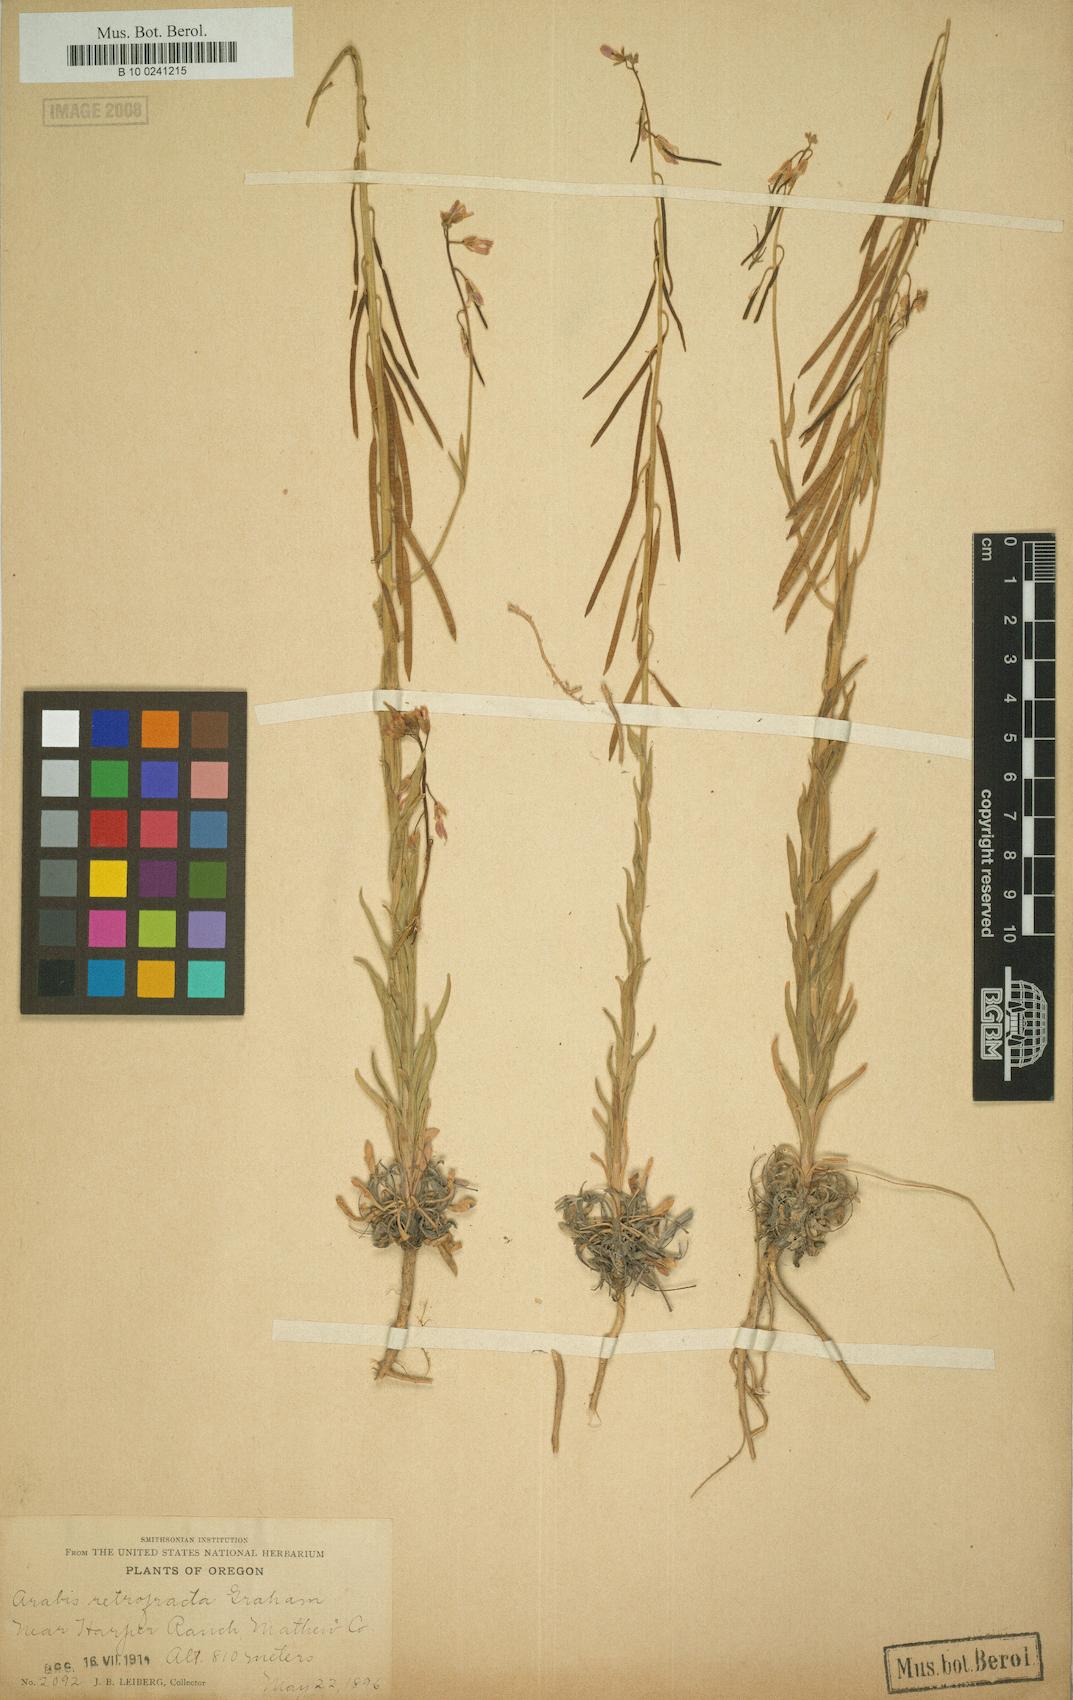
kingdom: Plantae
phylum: Tracheophyta
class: Magnoliopsida
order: Brassicales
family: Brassicaceae
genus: Boechera
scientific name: Boechera retrofracta
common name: Dangling suncress
